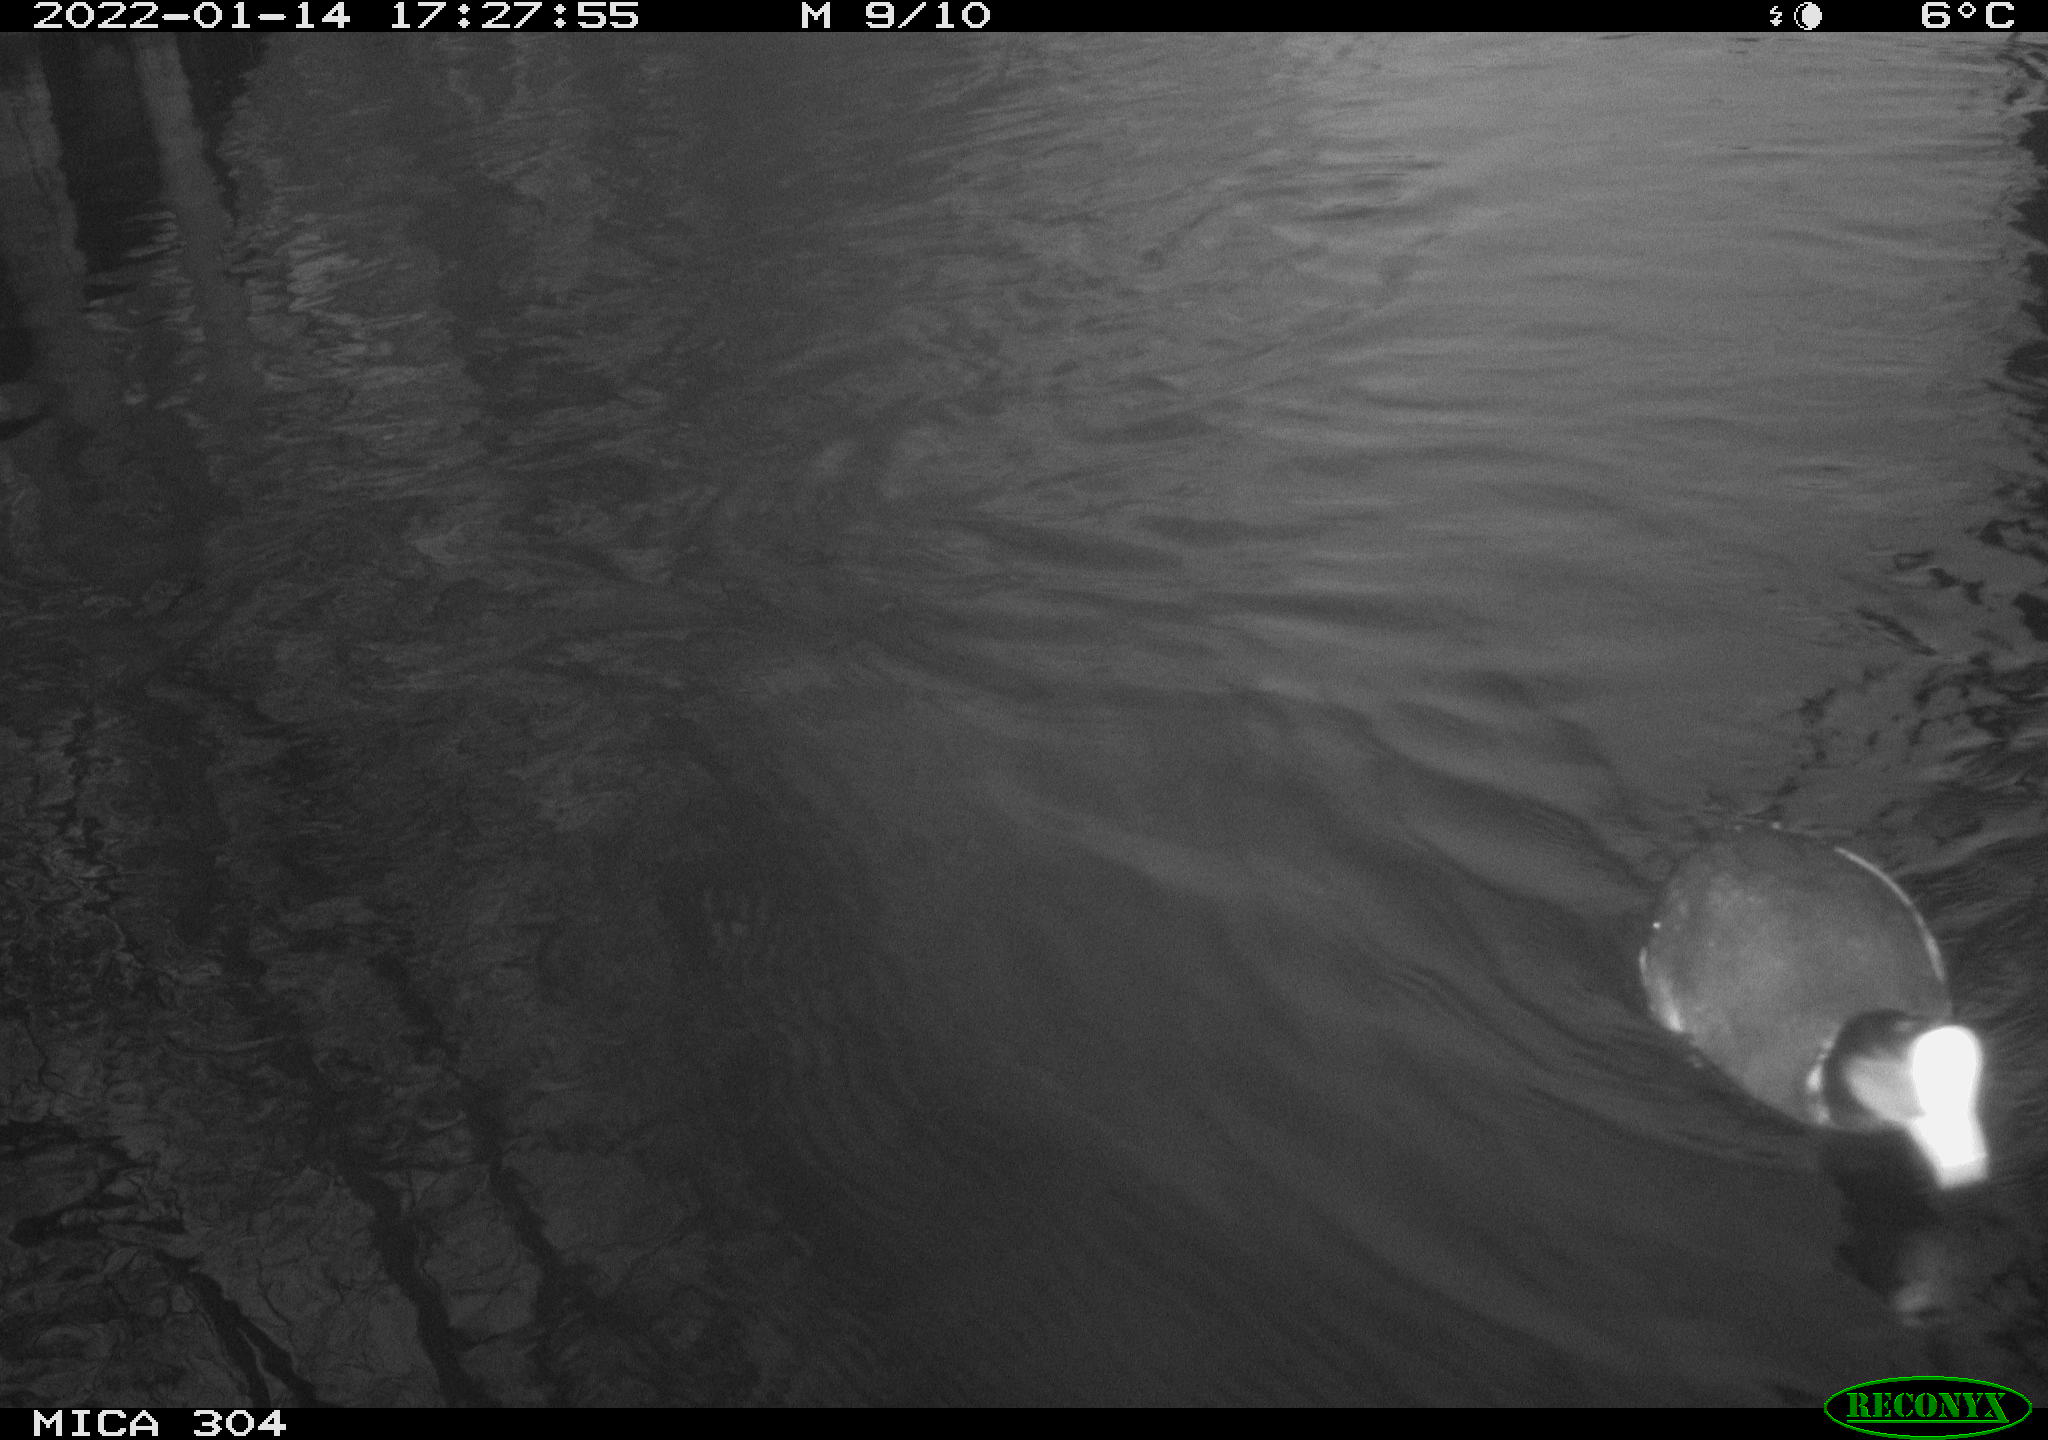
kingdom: Animalia
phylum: Chordata
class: Aves
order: Gruiformes
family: Rallidae
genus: Fulica
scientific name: Fulica atra
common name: Eurasian coot
